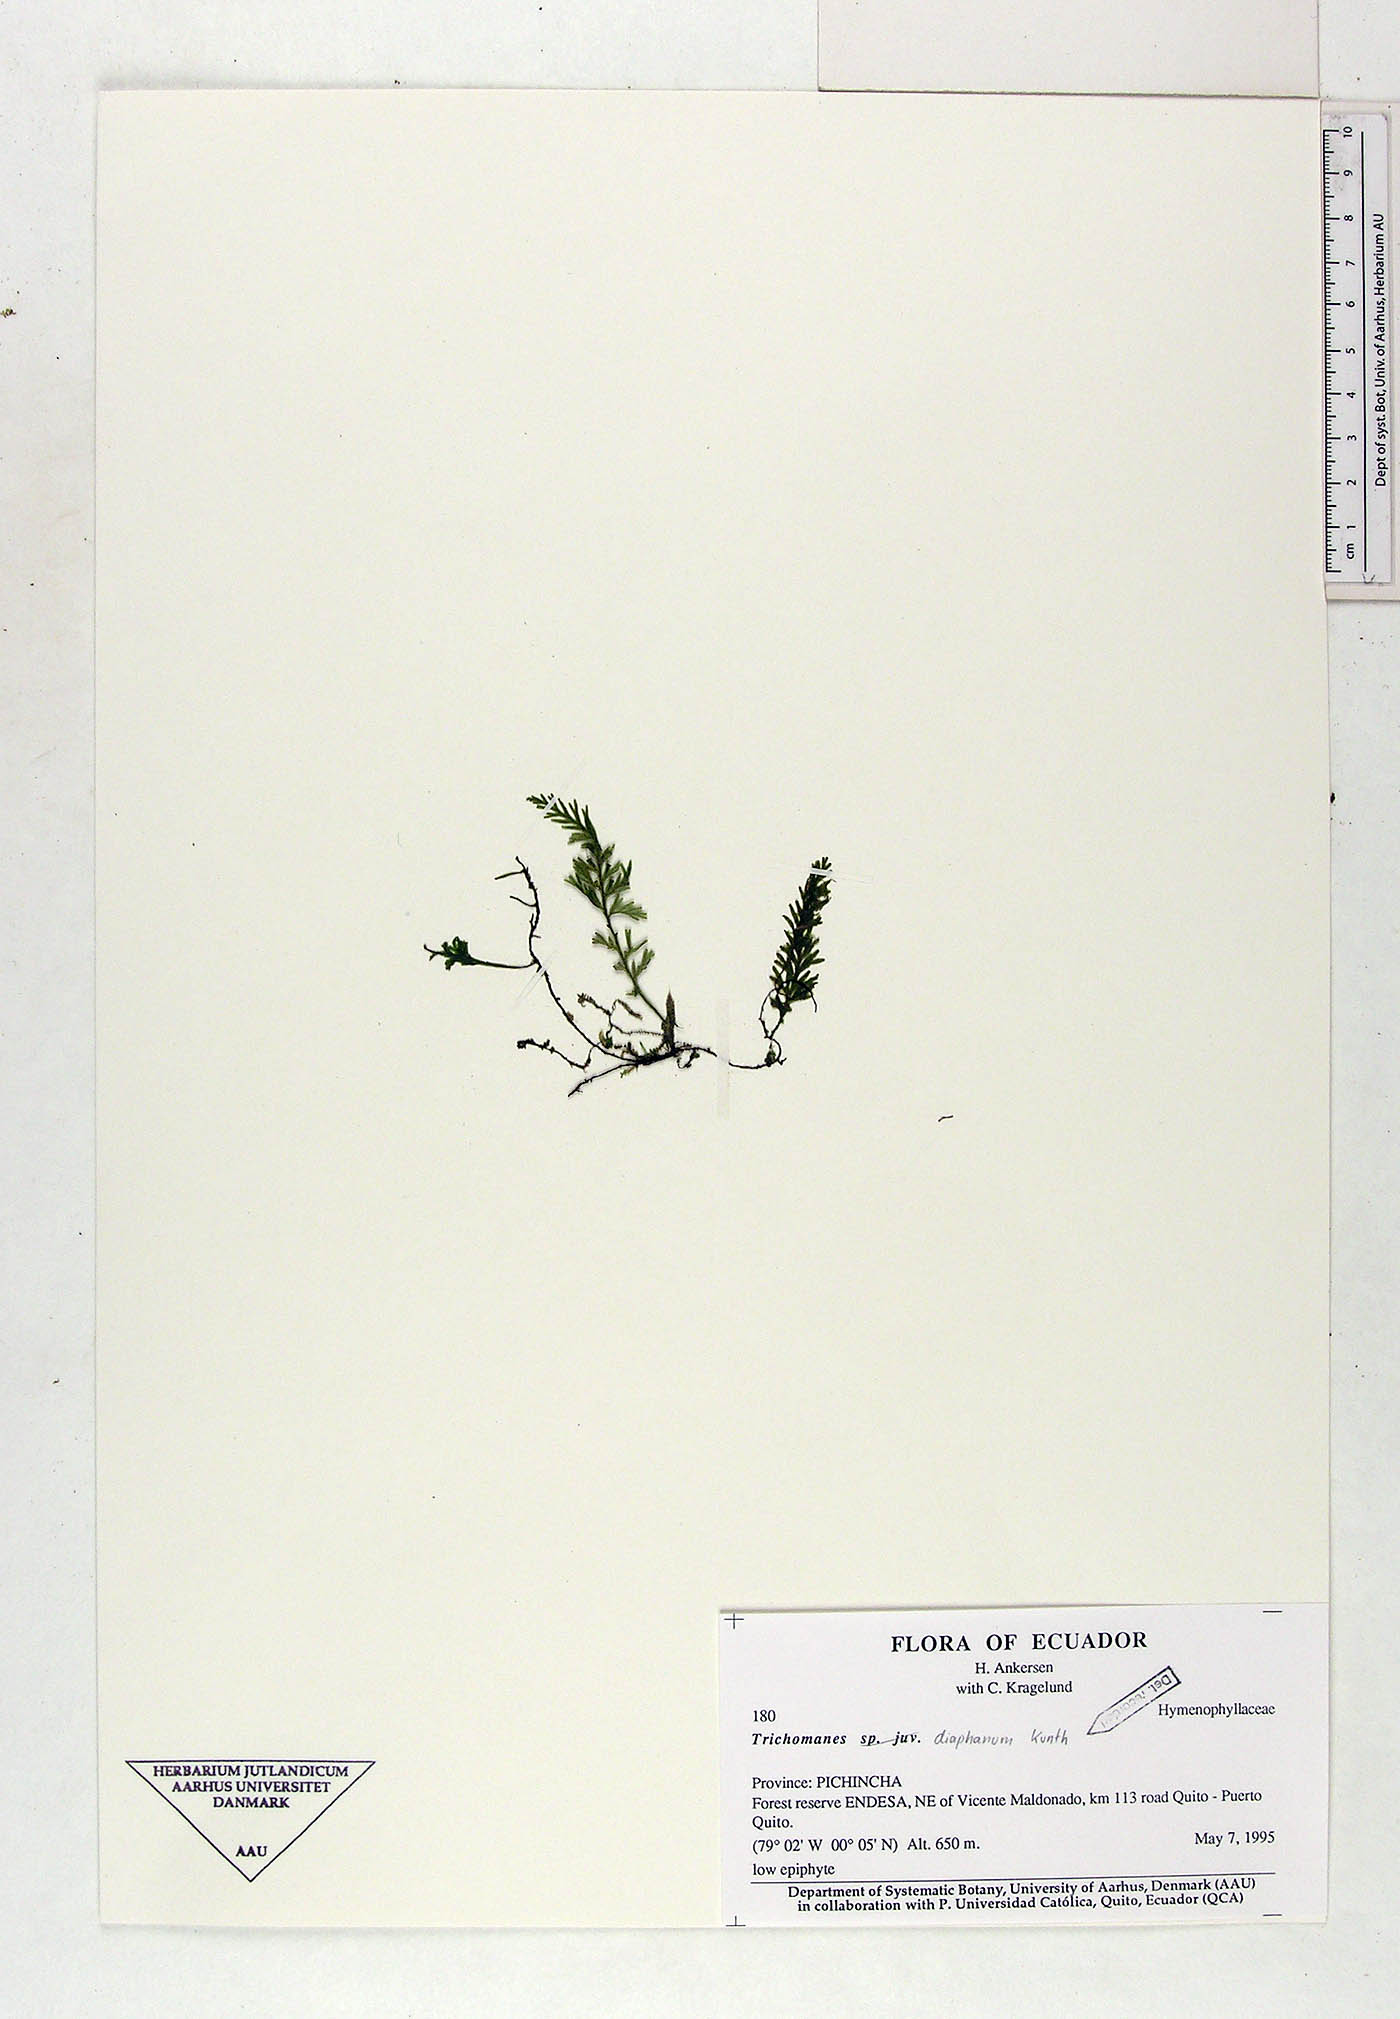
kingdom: Plantae
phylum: Tracheophyta
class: Polypodiopsida
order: Hymenophyllales
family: Hymenophyllaceae
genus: Trichomanes
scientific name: Trichomanes
